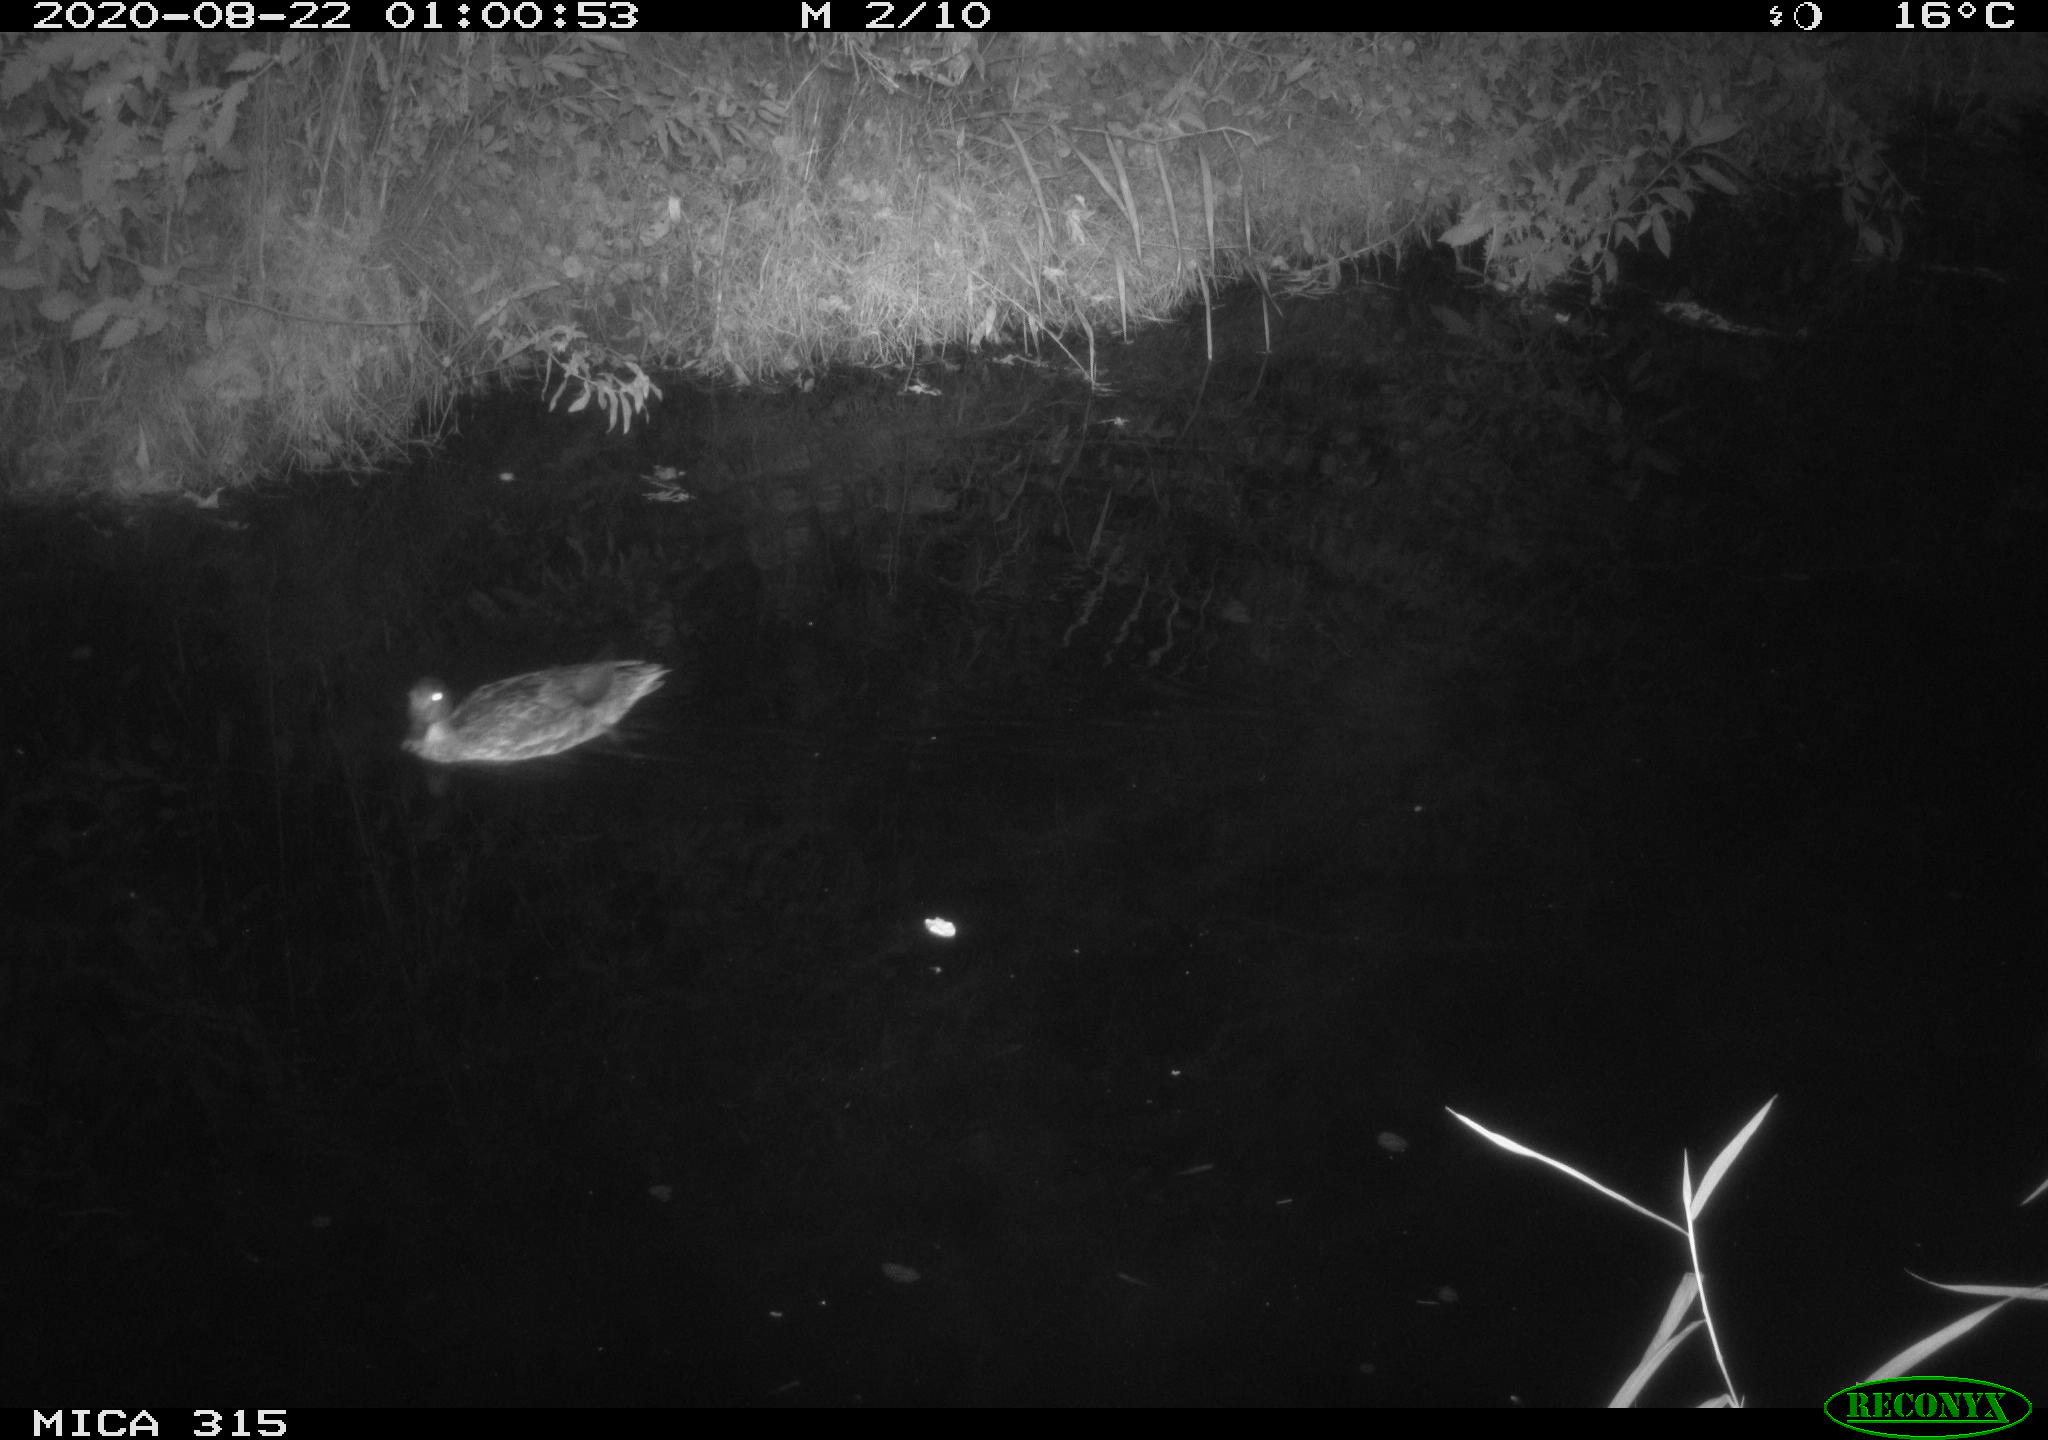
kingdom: Animalia
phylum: Chordata
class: Aves
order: Anseriformes
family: Anatidae
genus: Anas
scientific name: Anas platyrhynchos
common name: Mallard
